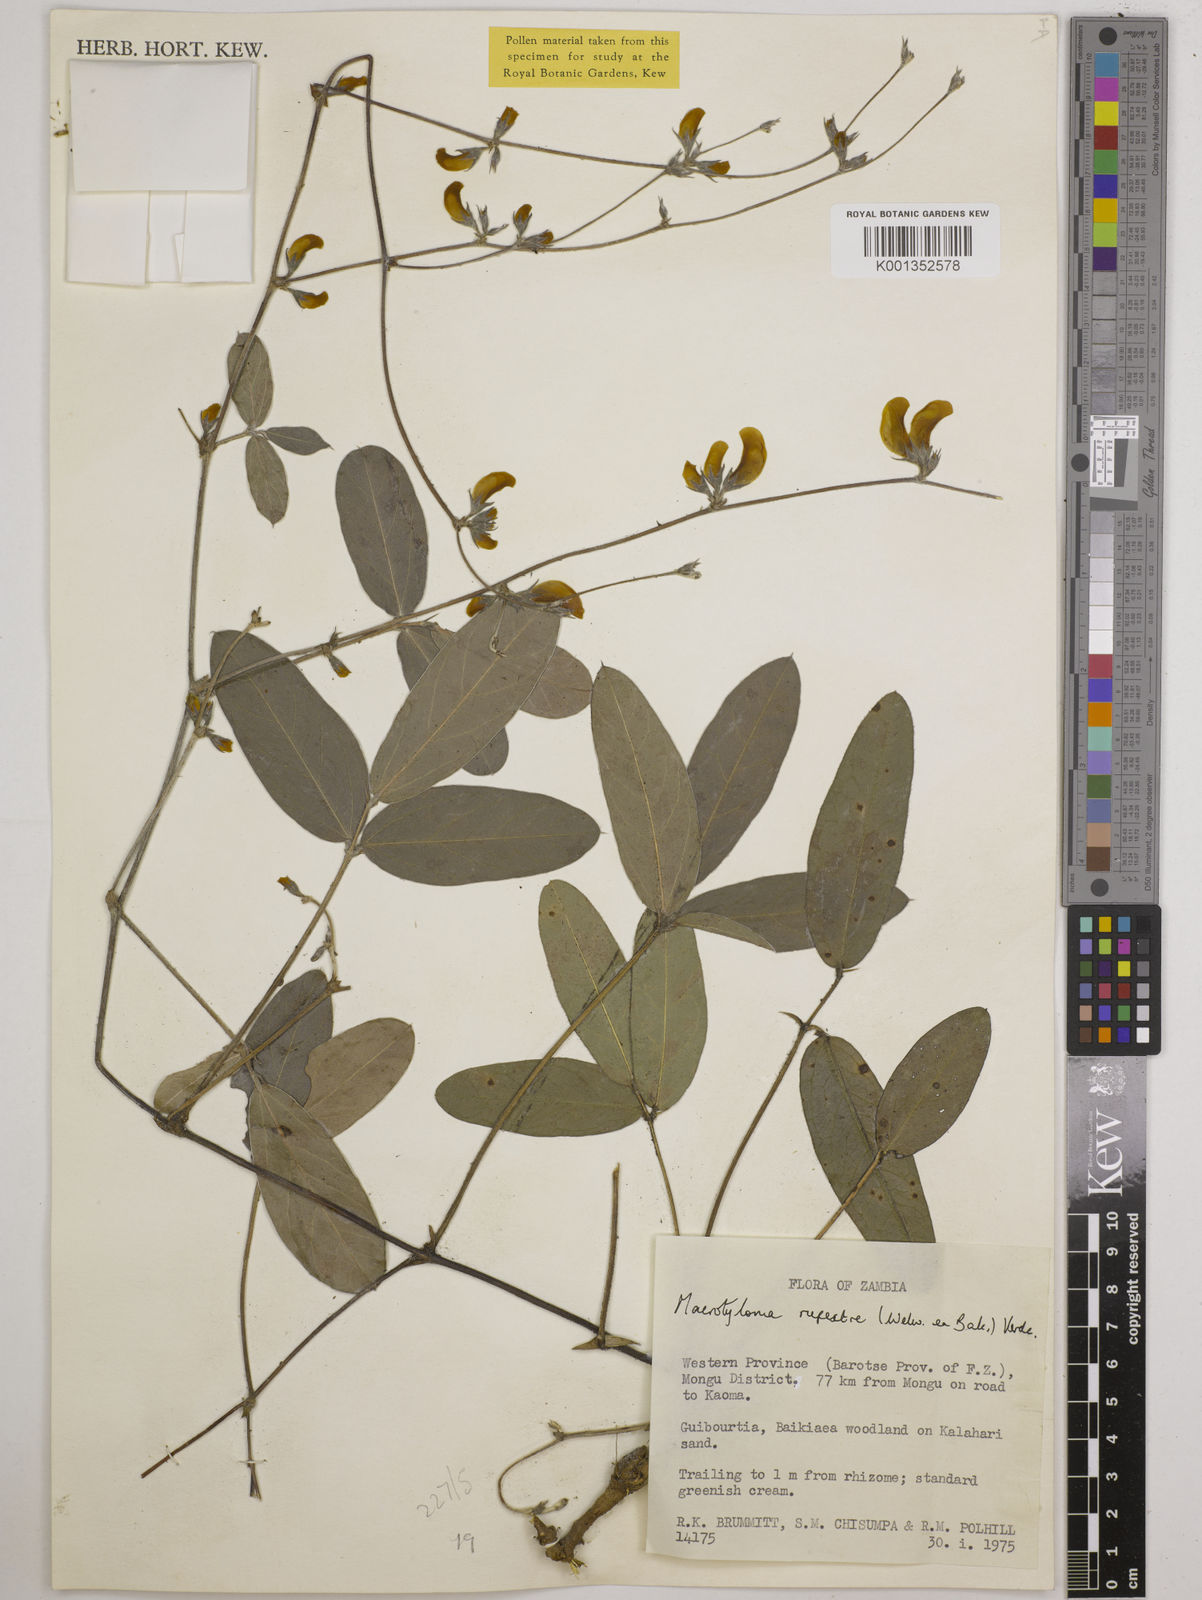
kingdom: Plantae
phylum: Tracheophyta
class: Magnoliopsida
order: Fabales
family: Fabaceae
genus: Macrotyloma
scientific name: Macrotyloma rupestre
